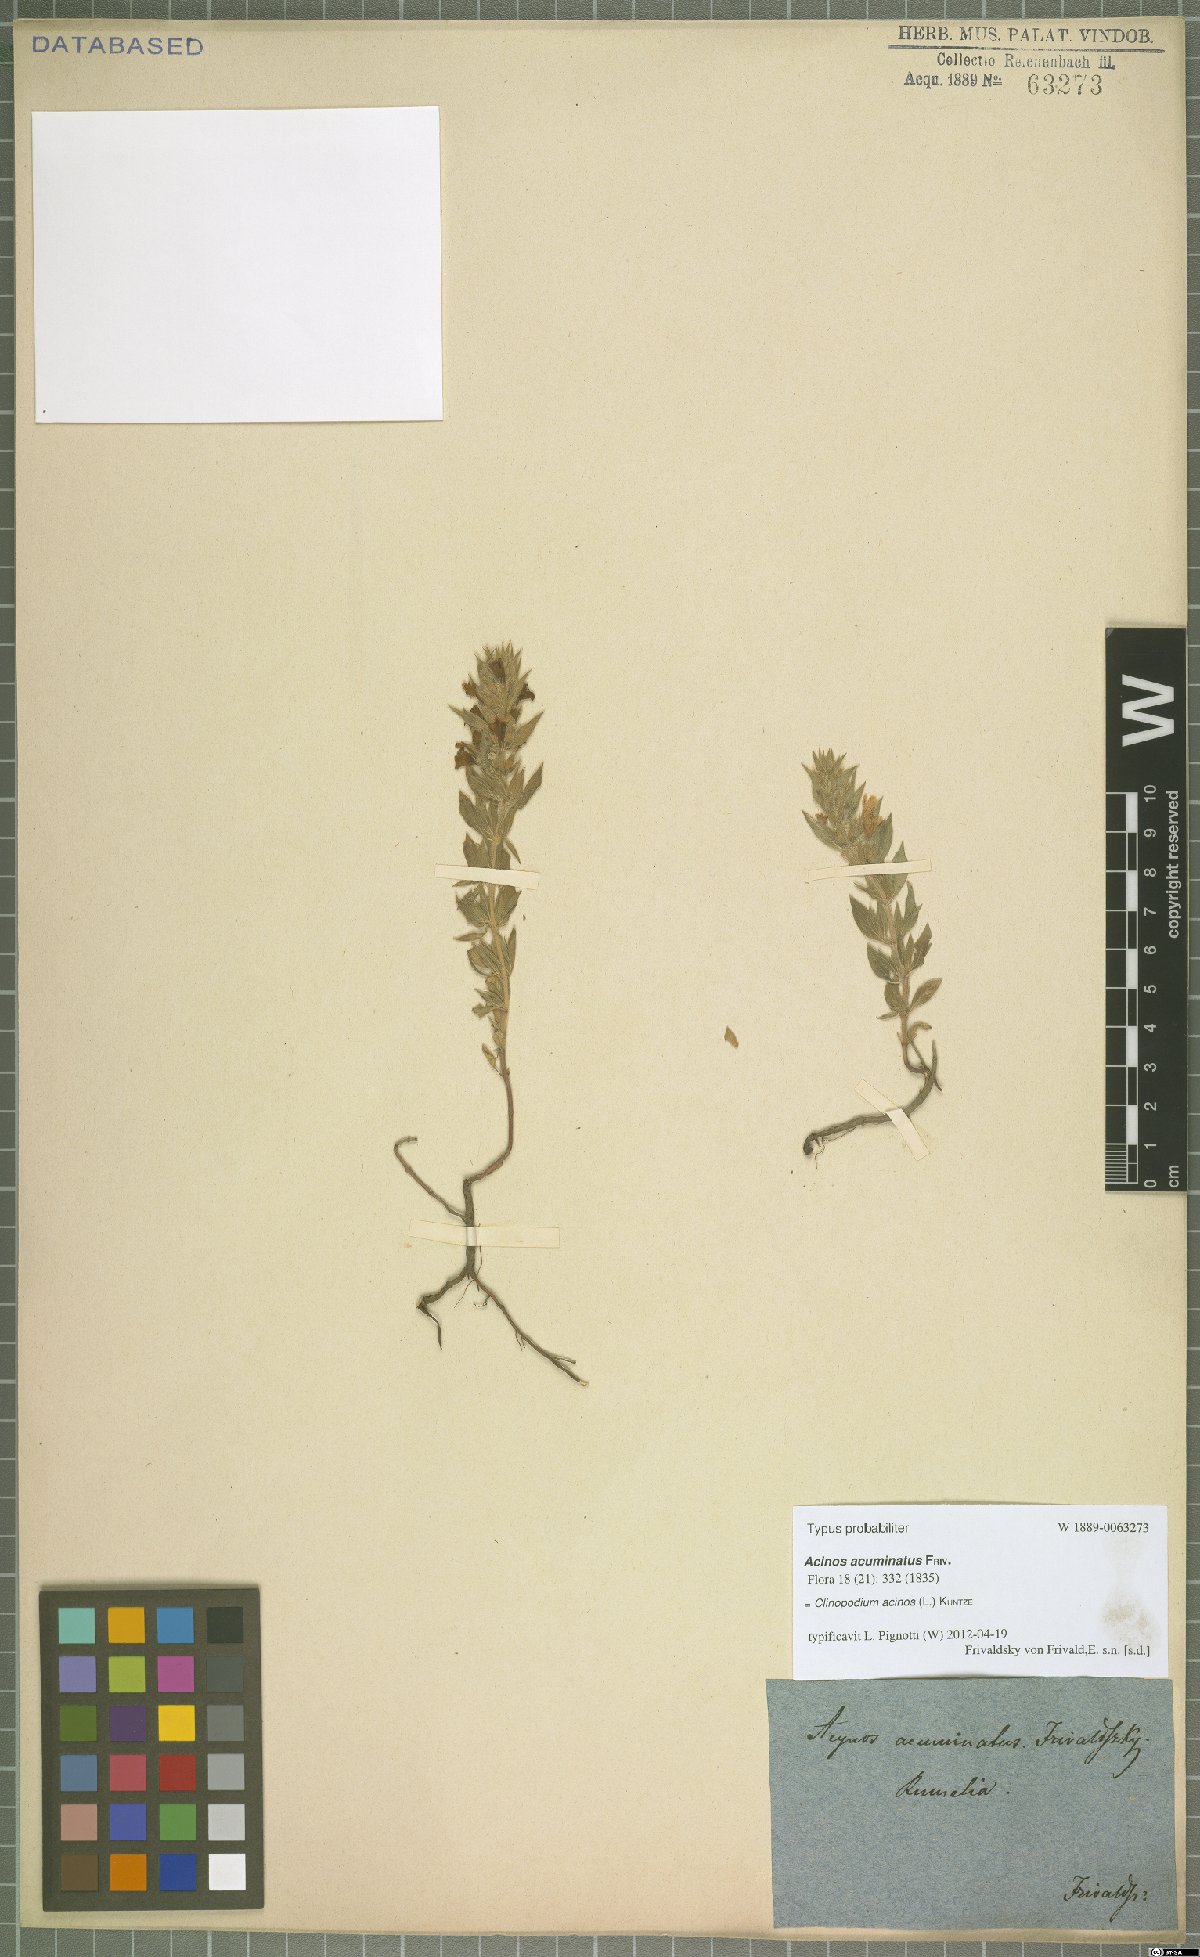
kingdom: Plantae
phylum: Tracheophyta
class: Magnoliopsida
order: Lamiales
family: Lamiaceae
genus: Clinopodium
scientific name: Clinopodium acinos
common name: Basil thyme
